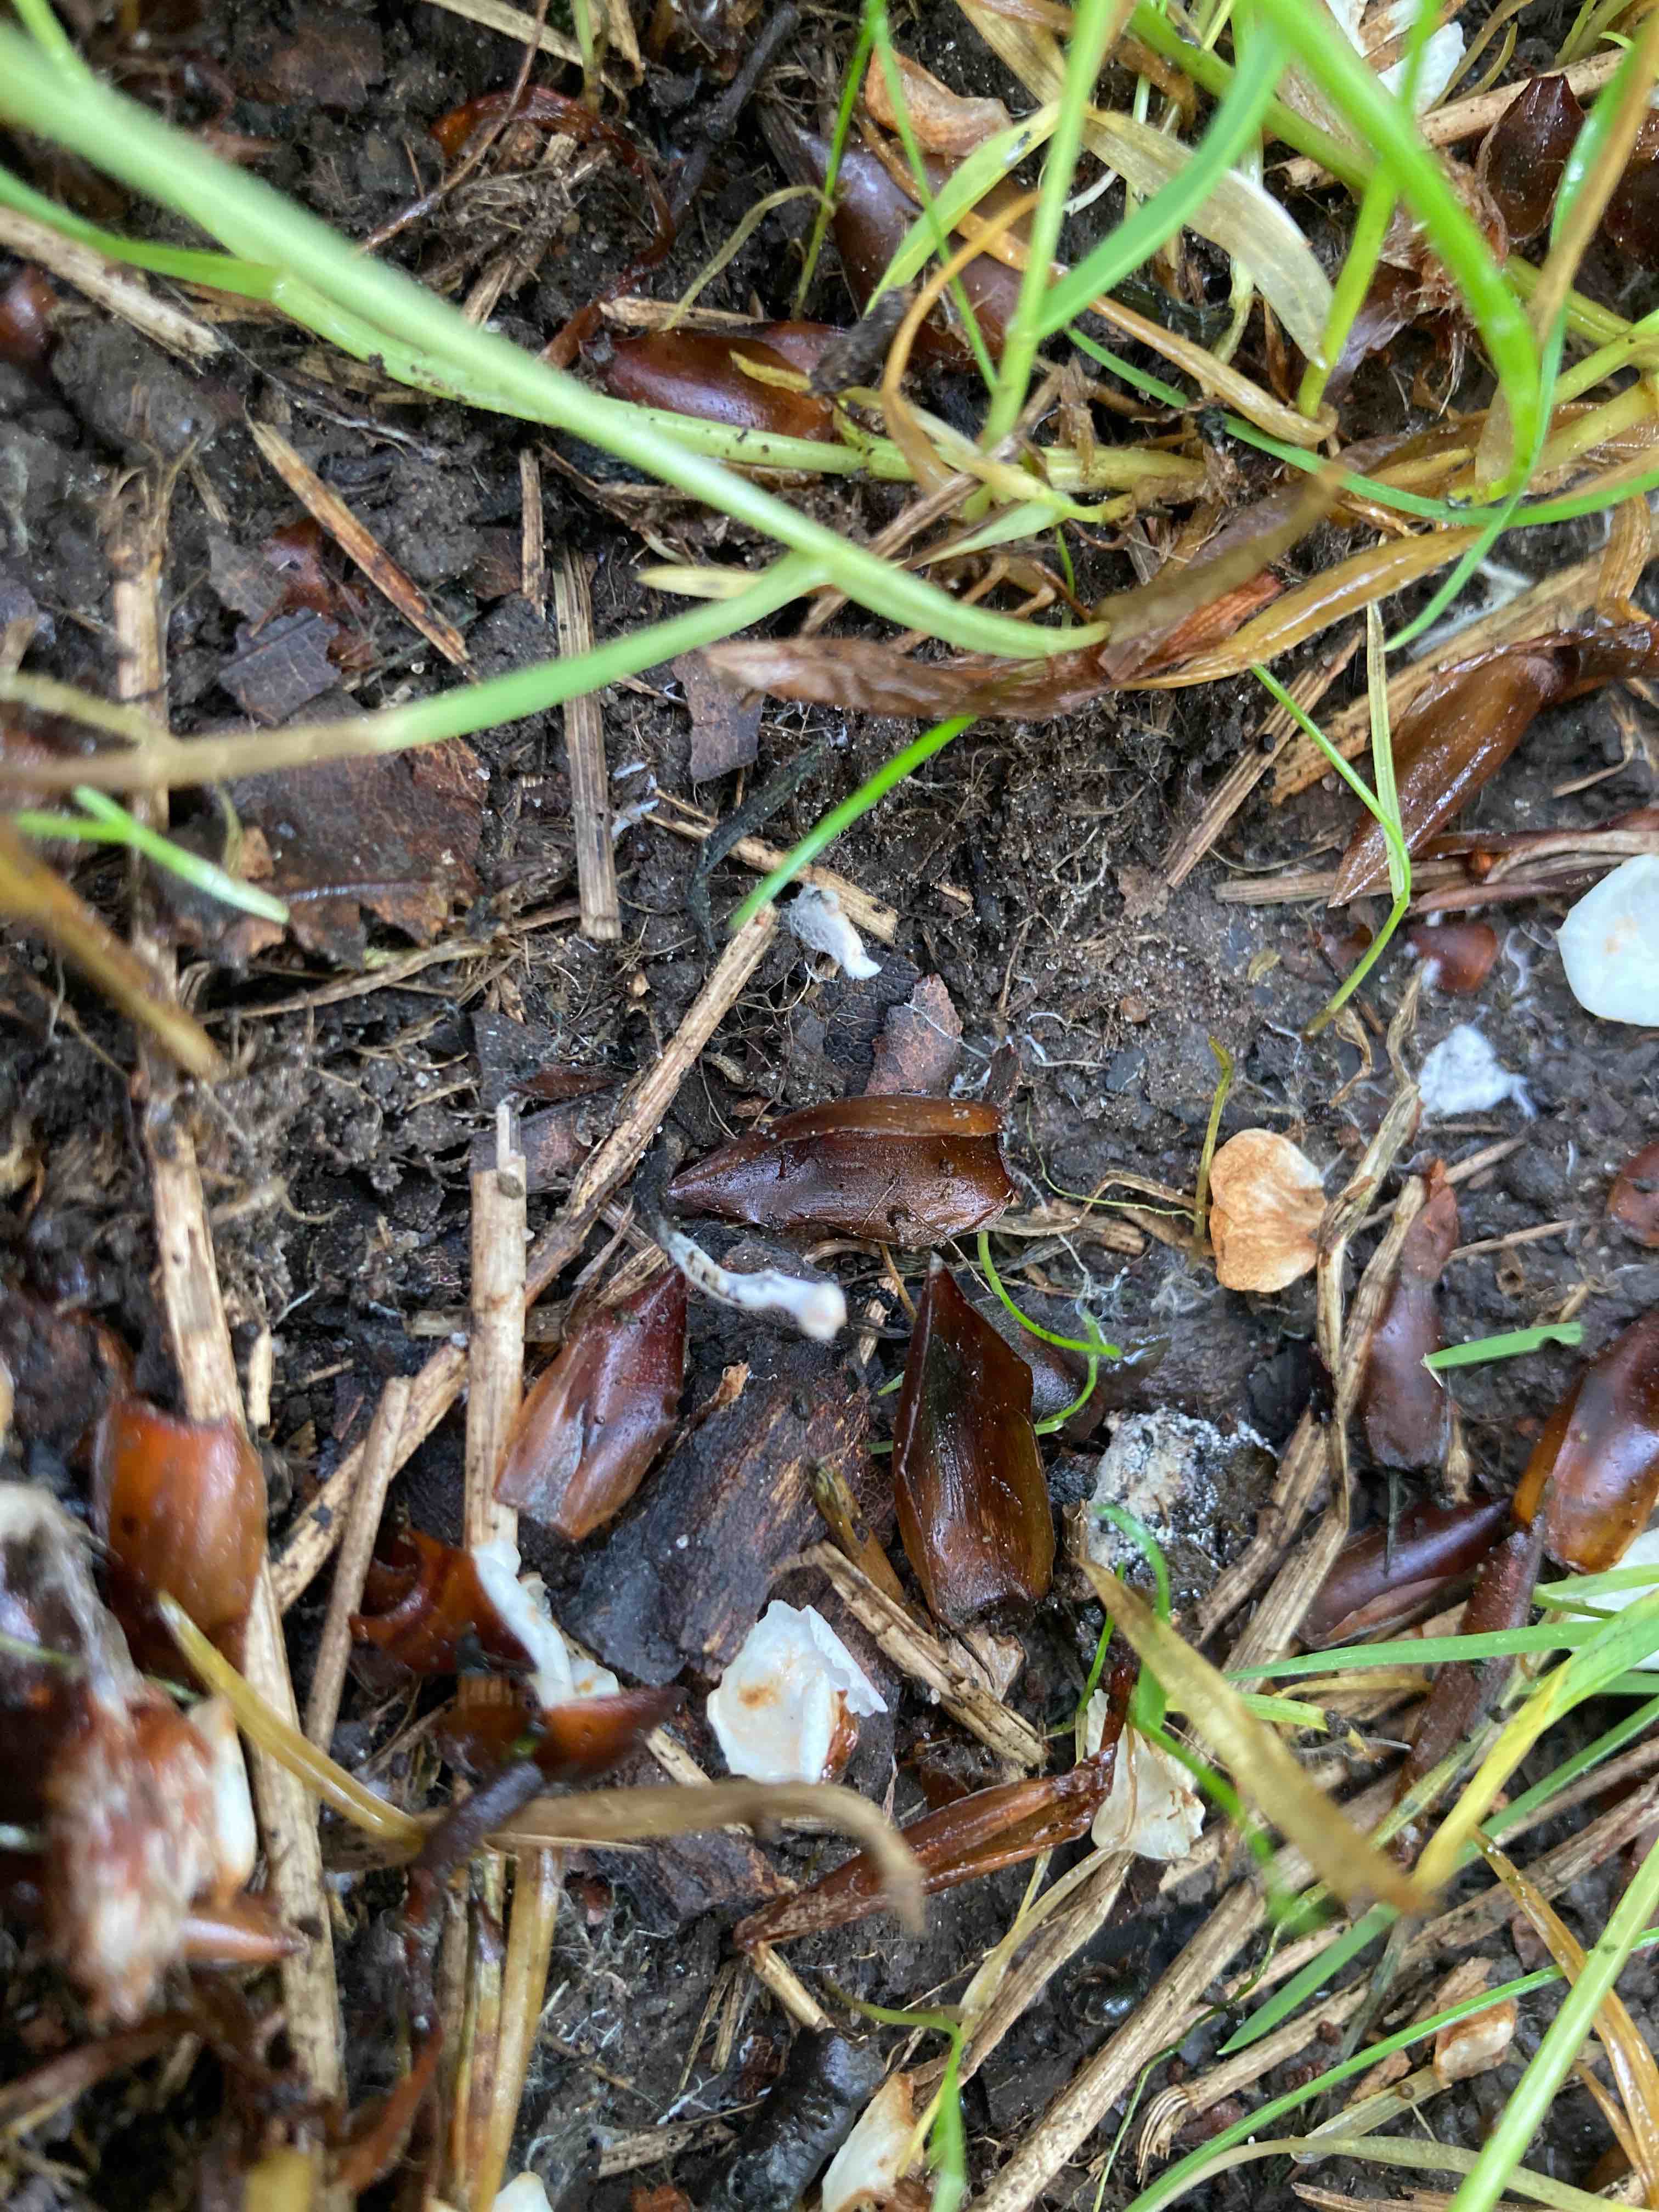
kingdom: Fungi
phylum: Ascomycota
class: Sordariomycetes
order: Xylariales
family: Xylariaceae
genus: Xylaria
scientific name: Xylaria oxyacanthae
